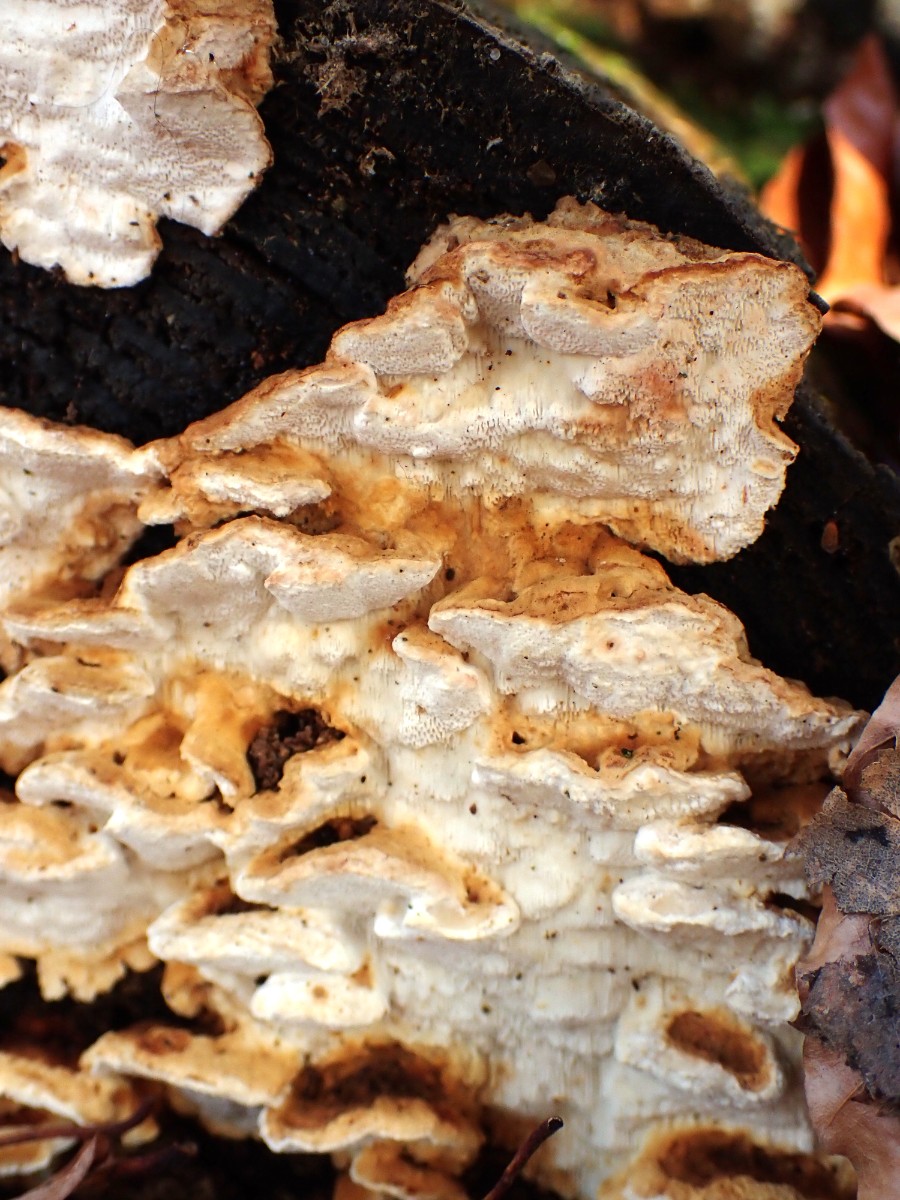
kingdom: Fungi
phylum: Basidiomycota
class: Agaricomycetes
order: Polyporales
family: Fomitopsidaceae
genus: Neoantrodia
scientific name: Neoantrodia serialis
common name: række-sejporesvamp
